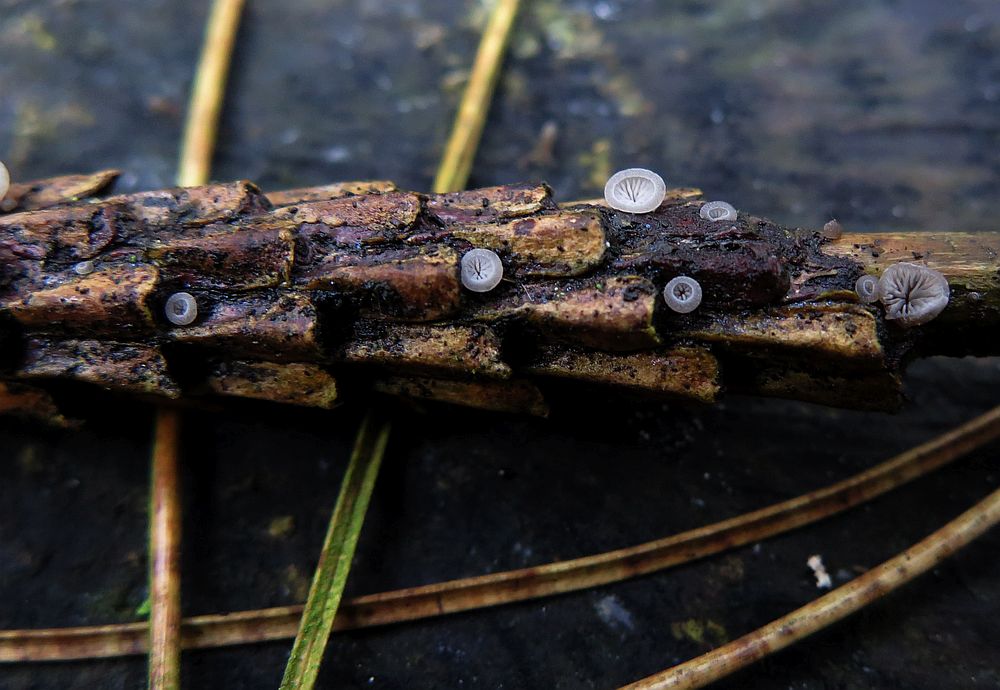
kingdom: Fungi
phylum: Basidiomycota
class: Agaricomycetes
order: Agaricales
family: Pleurotaceae
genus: Resupinatus
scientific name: Resupinatus applicatus
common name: lysfiltet barkhat
